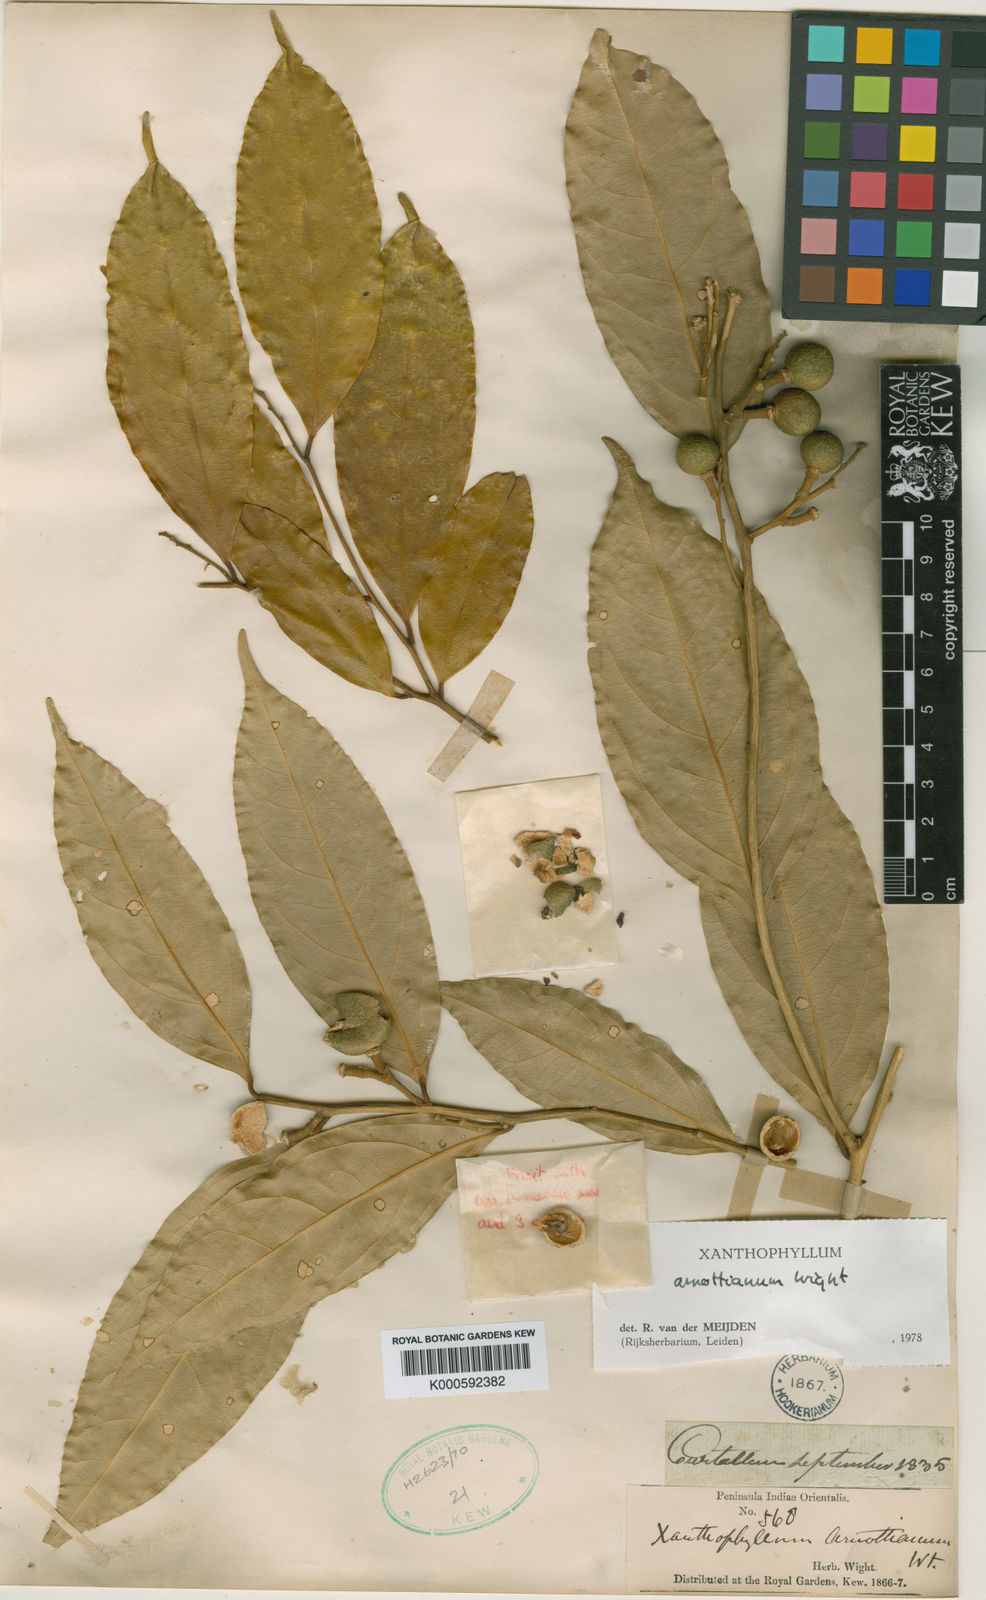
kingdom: Plantae
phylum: Tracheophyta
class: Magnoliopsida
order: Fabales
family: Polygalaceae
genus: Xanthophyllum
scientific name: Xanthophyllum flavescens
